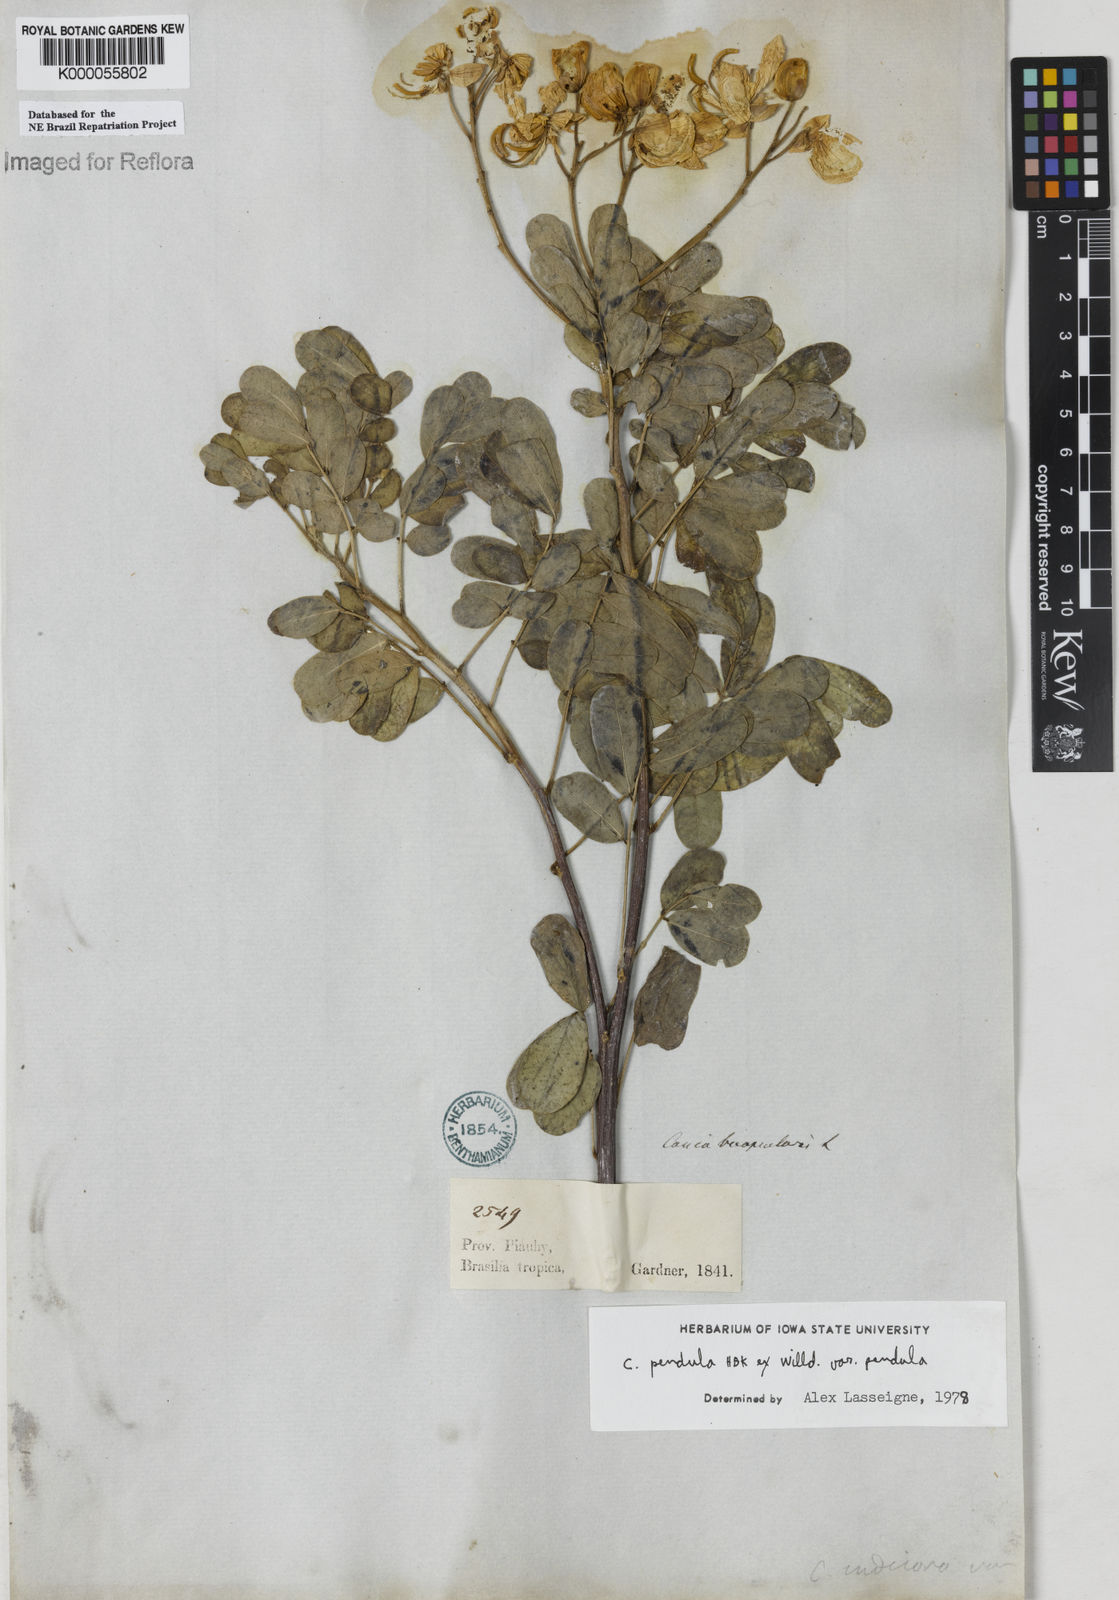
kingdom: Plantae
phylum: Tracheophyta
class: Magnoliopsida
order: Fabales
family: Fabaceae
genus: Senna
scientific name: Senna pendula
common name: Easter cassia
